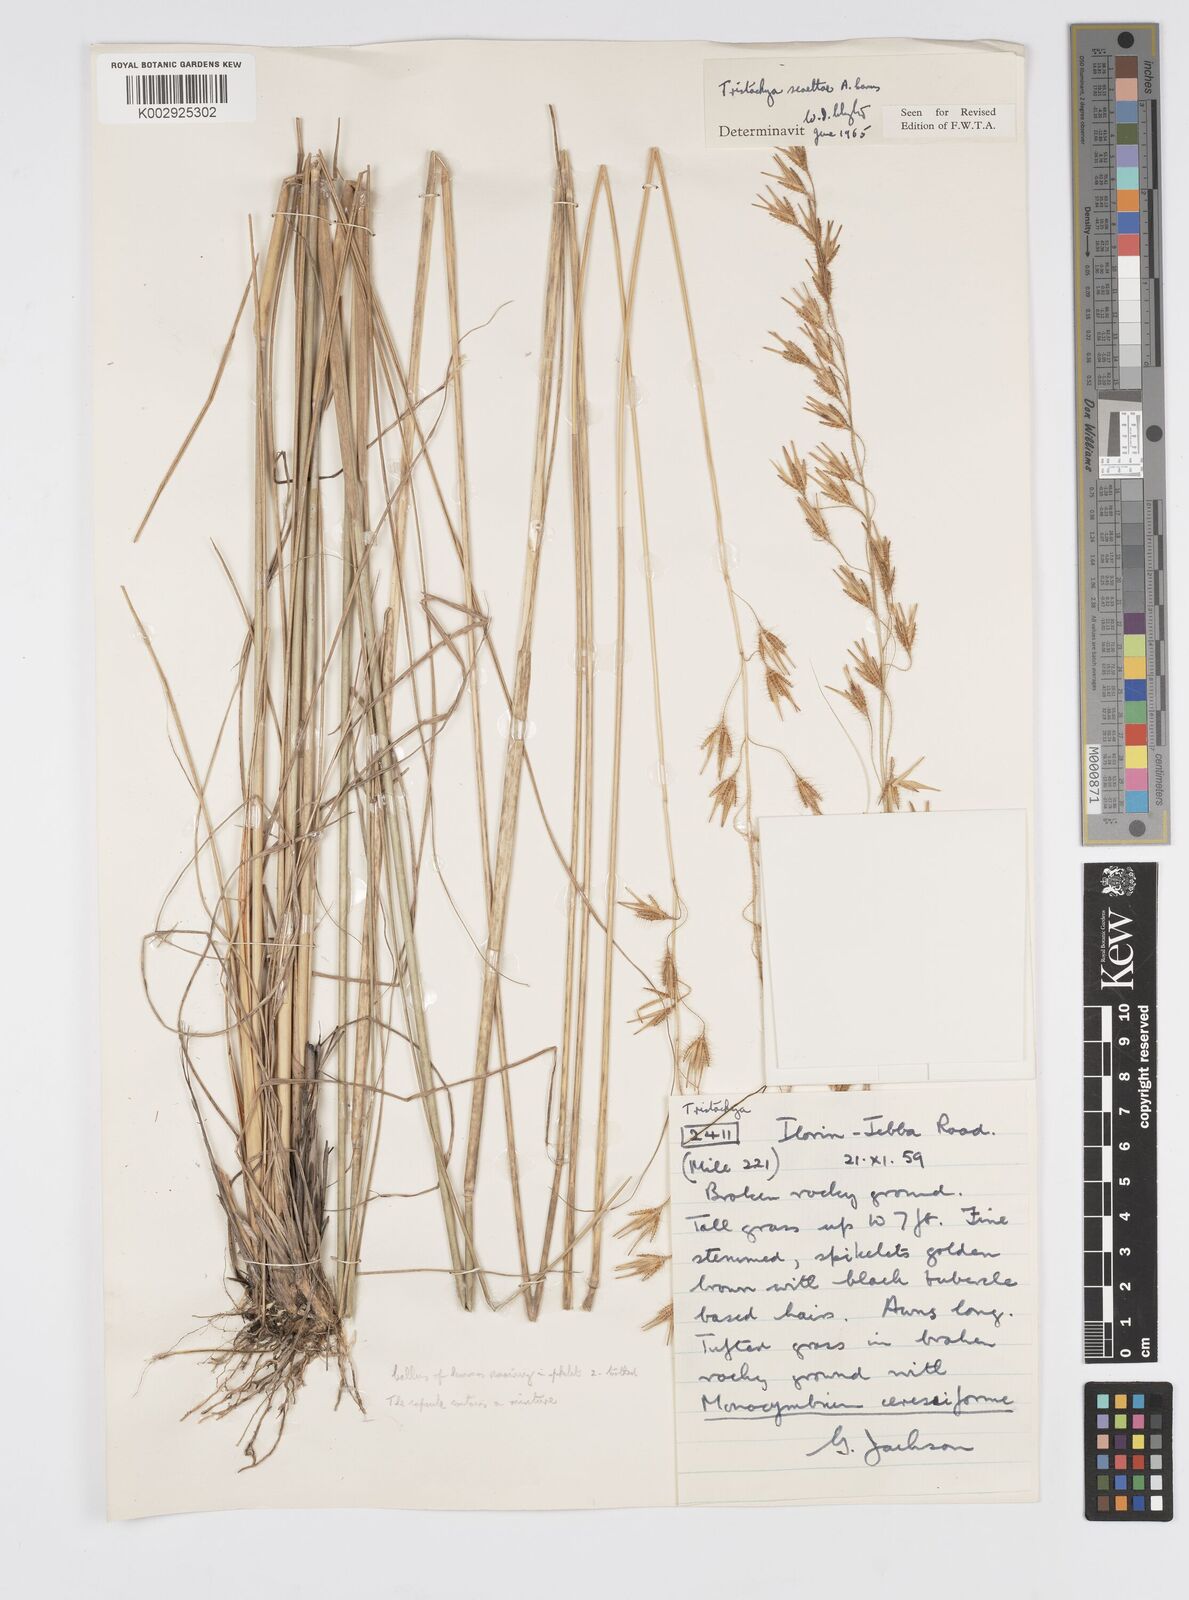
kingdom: Plantae
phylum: Tracheophyta
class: Liliopsida
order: Poales
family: Poaceae
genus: Loudetiopsis
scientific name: Loudetiopsis scaettae
